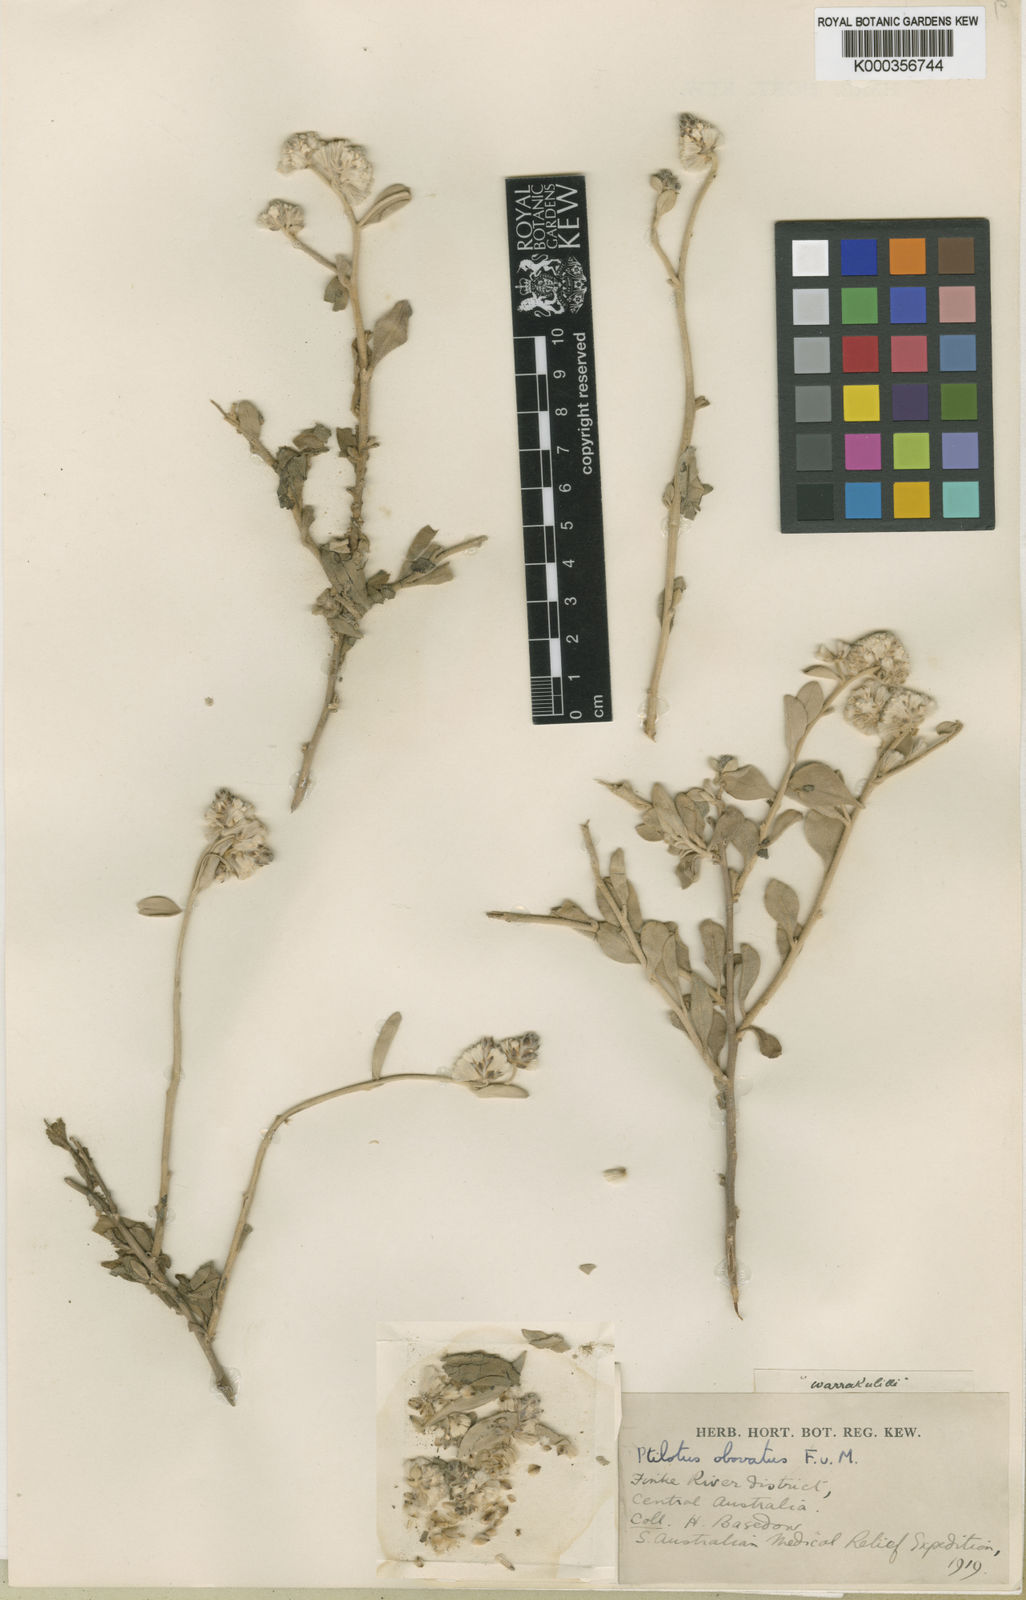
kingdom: Plantae
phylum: Tracheophyta
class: Magnoliopsida
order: Caryophyllales
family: Amaranthaceae
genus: Ptilotus
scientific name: Ptilotus obovatus
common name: Cottonbush
